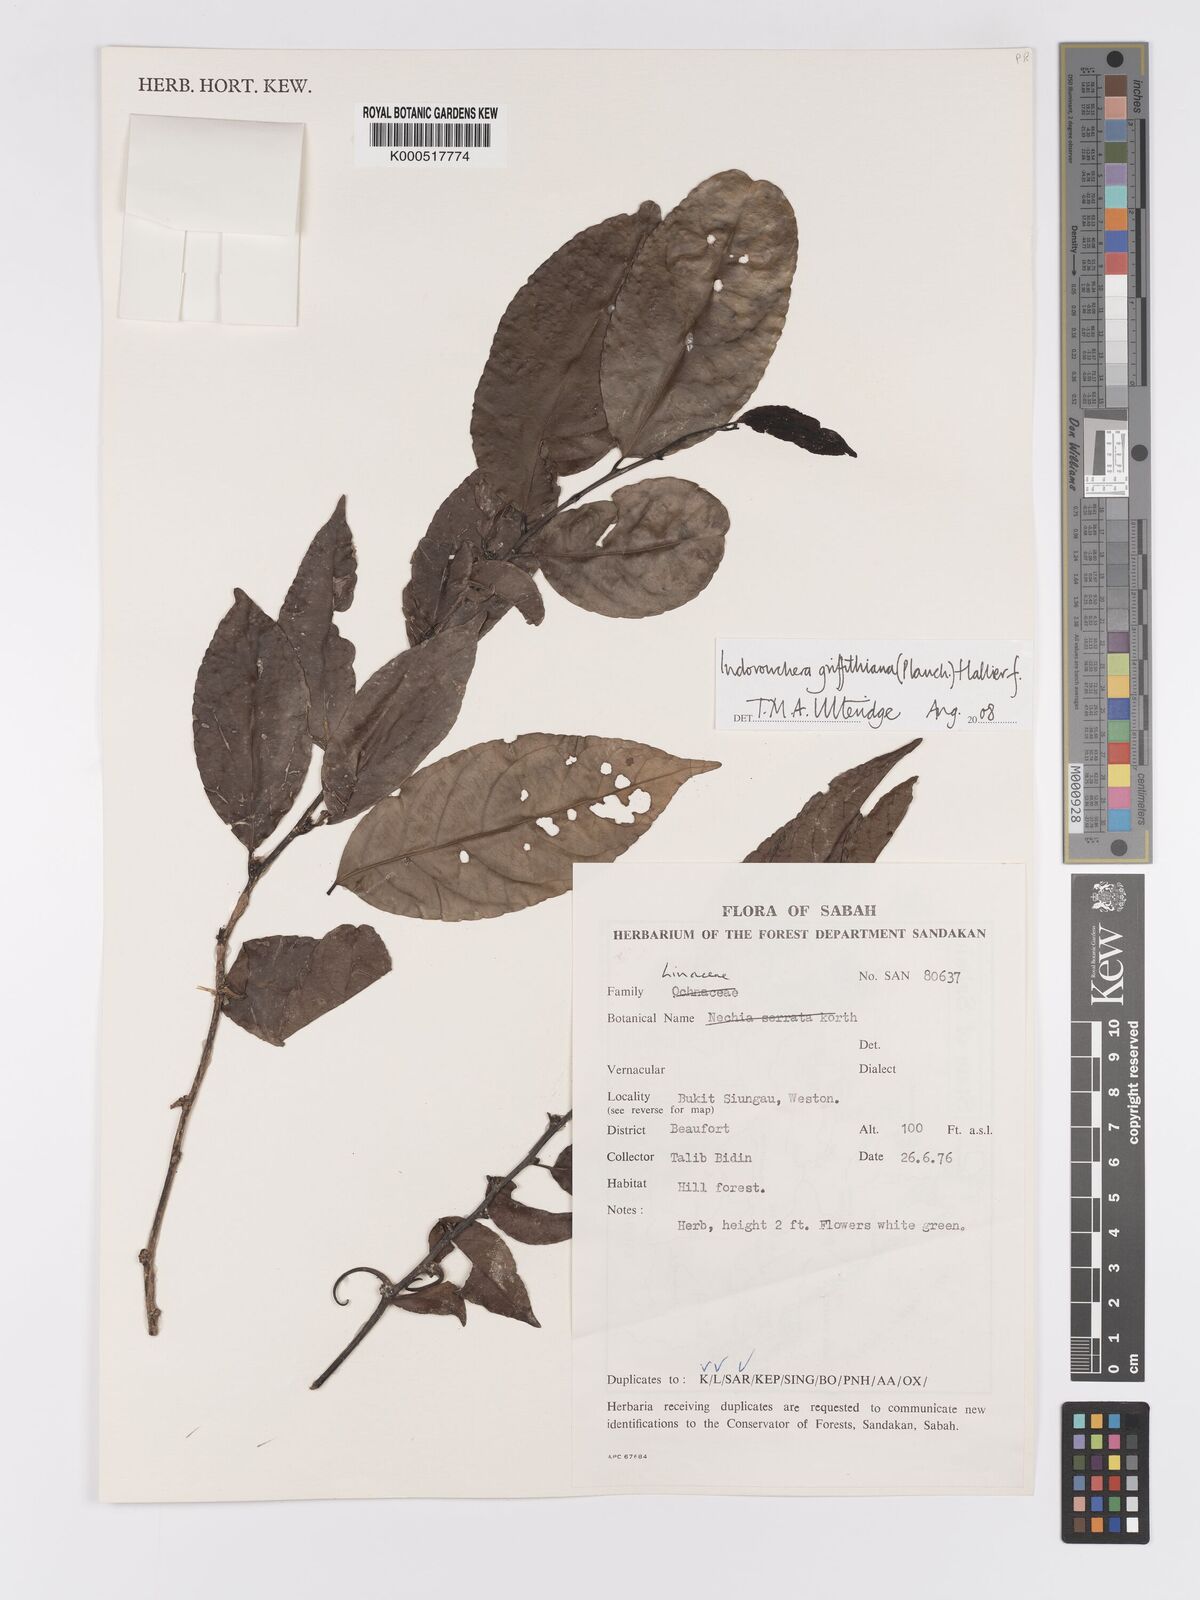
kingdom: Plantae
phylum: Tracheophyta
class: Magnoliopsida
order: Malpighiales
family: Linaceae
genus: Indorouchera
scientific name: Indorouchera griffithiana
